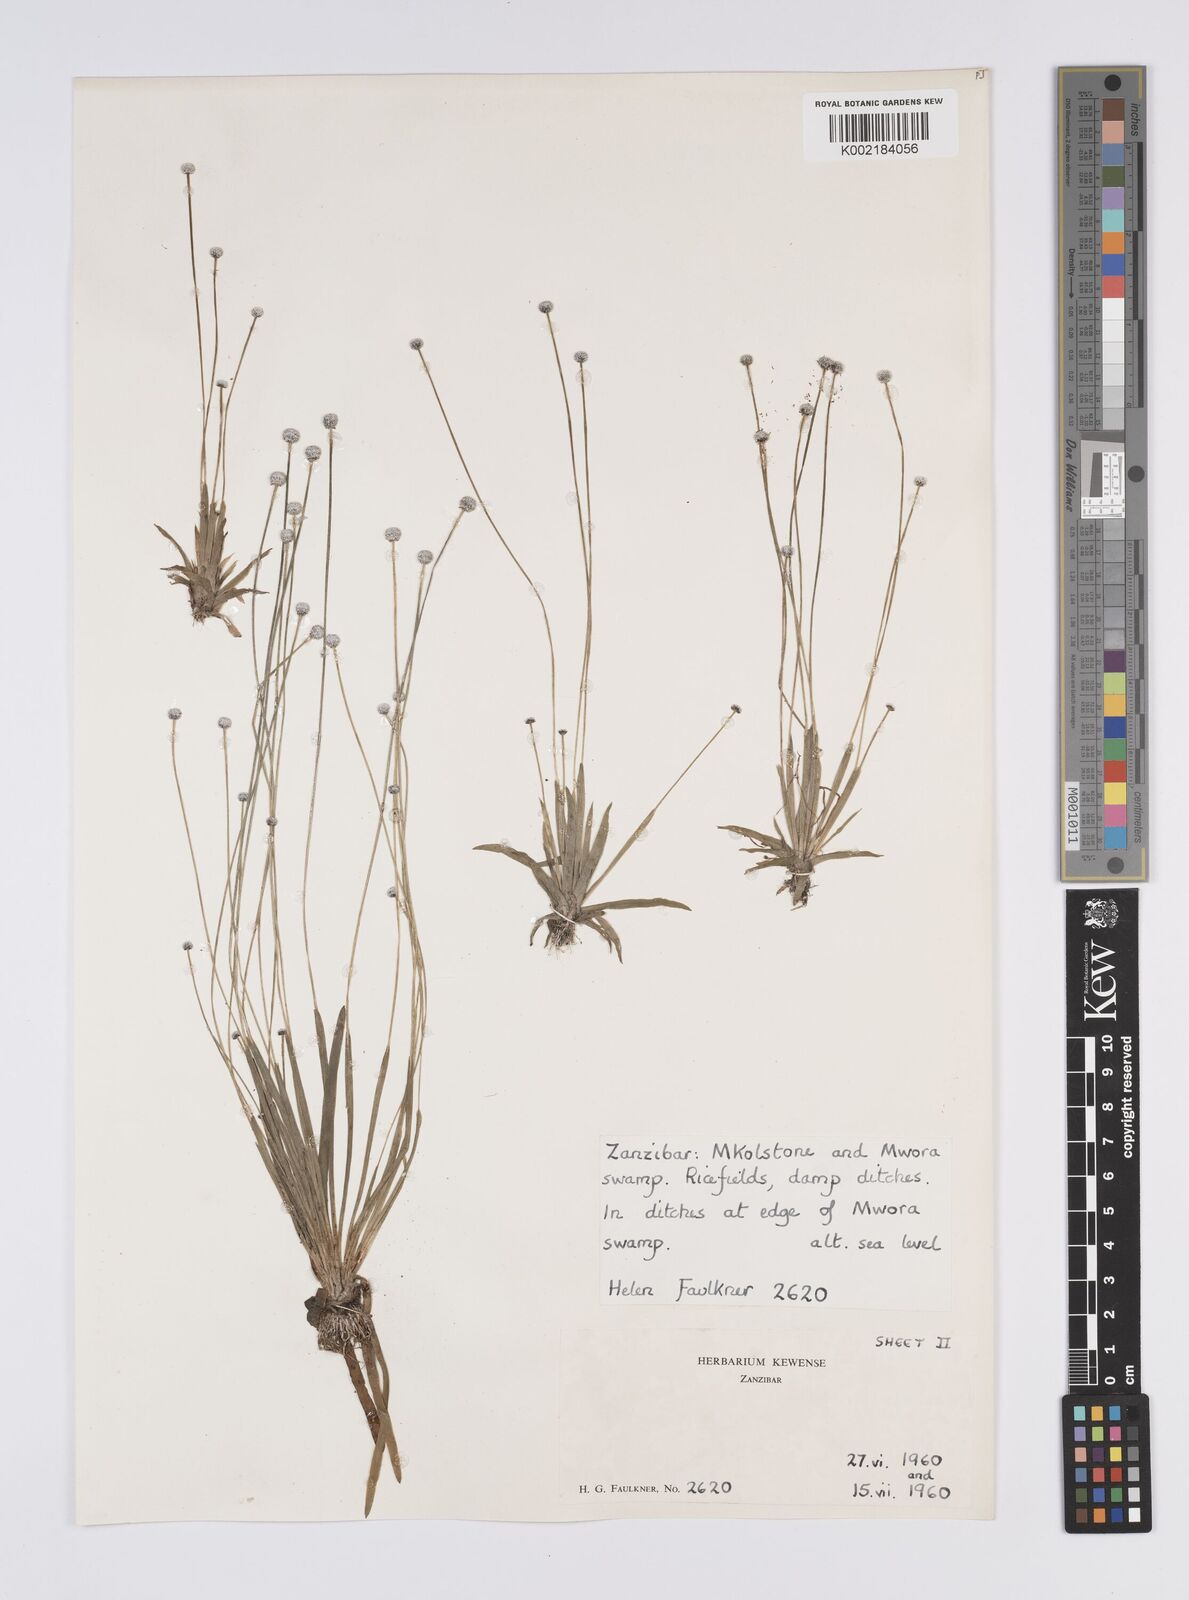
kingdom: Plantae
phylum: Tracheophyta
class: Liliopsida
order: Poales
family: Eriocaulaceae
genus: Eriocaulon
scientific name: Eriocaulon
